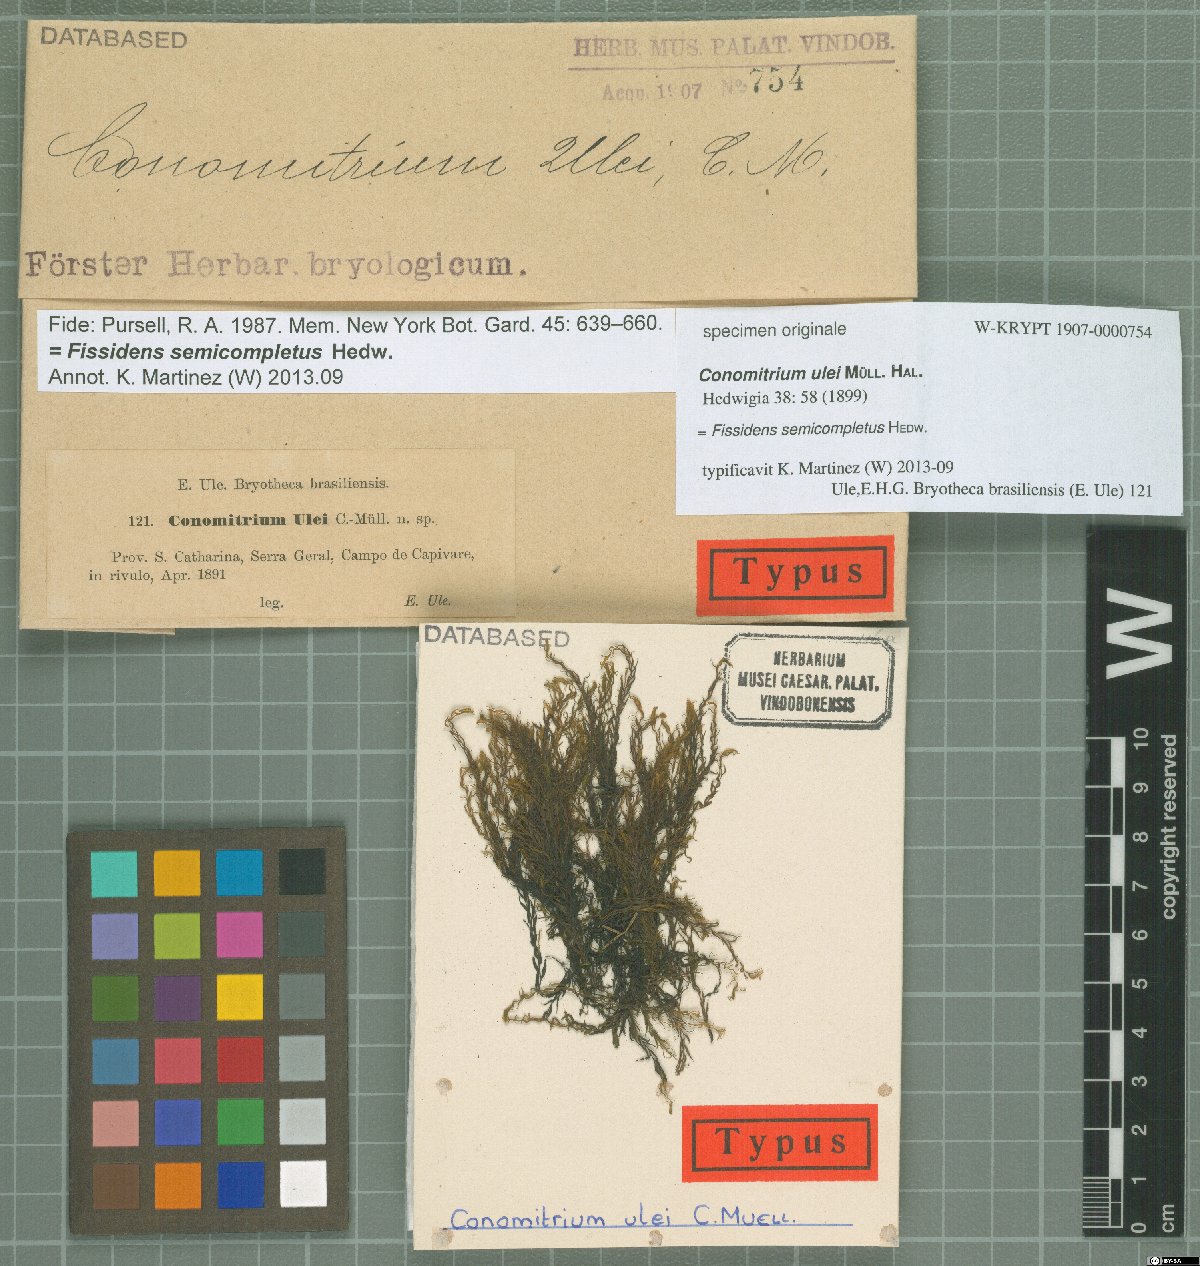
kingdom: Plantae
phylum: Bryophyta
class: Bryopsida
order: Dicranales
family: Fissidentaceae
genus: Fissidens
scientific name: Fissidens semicompletus
